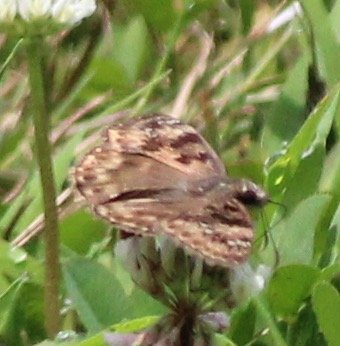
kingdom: Animalia
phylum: Arthropoda
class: Insecta
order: Lepidoptera
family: Hesperiidae
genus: Gesta
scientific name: Gesta
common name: Horace's Duskywing
